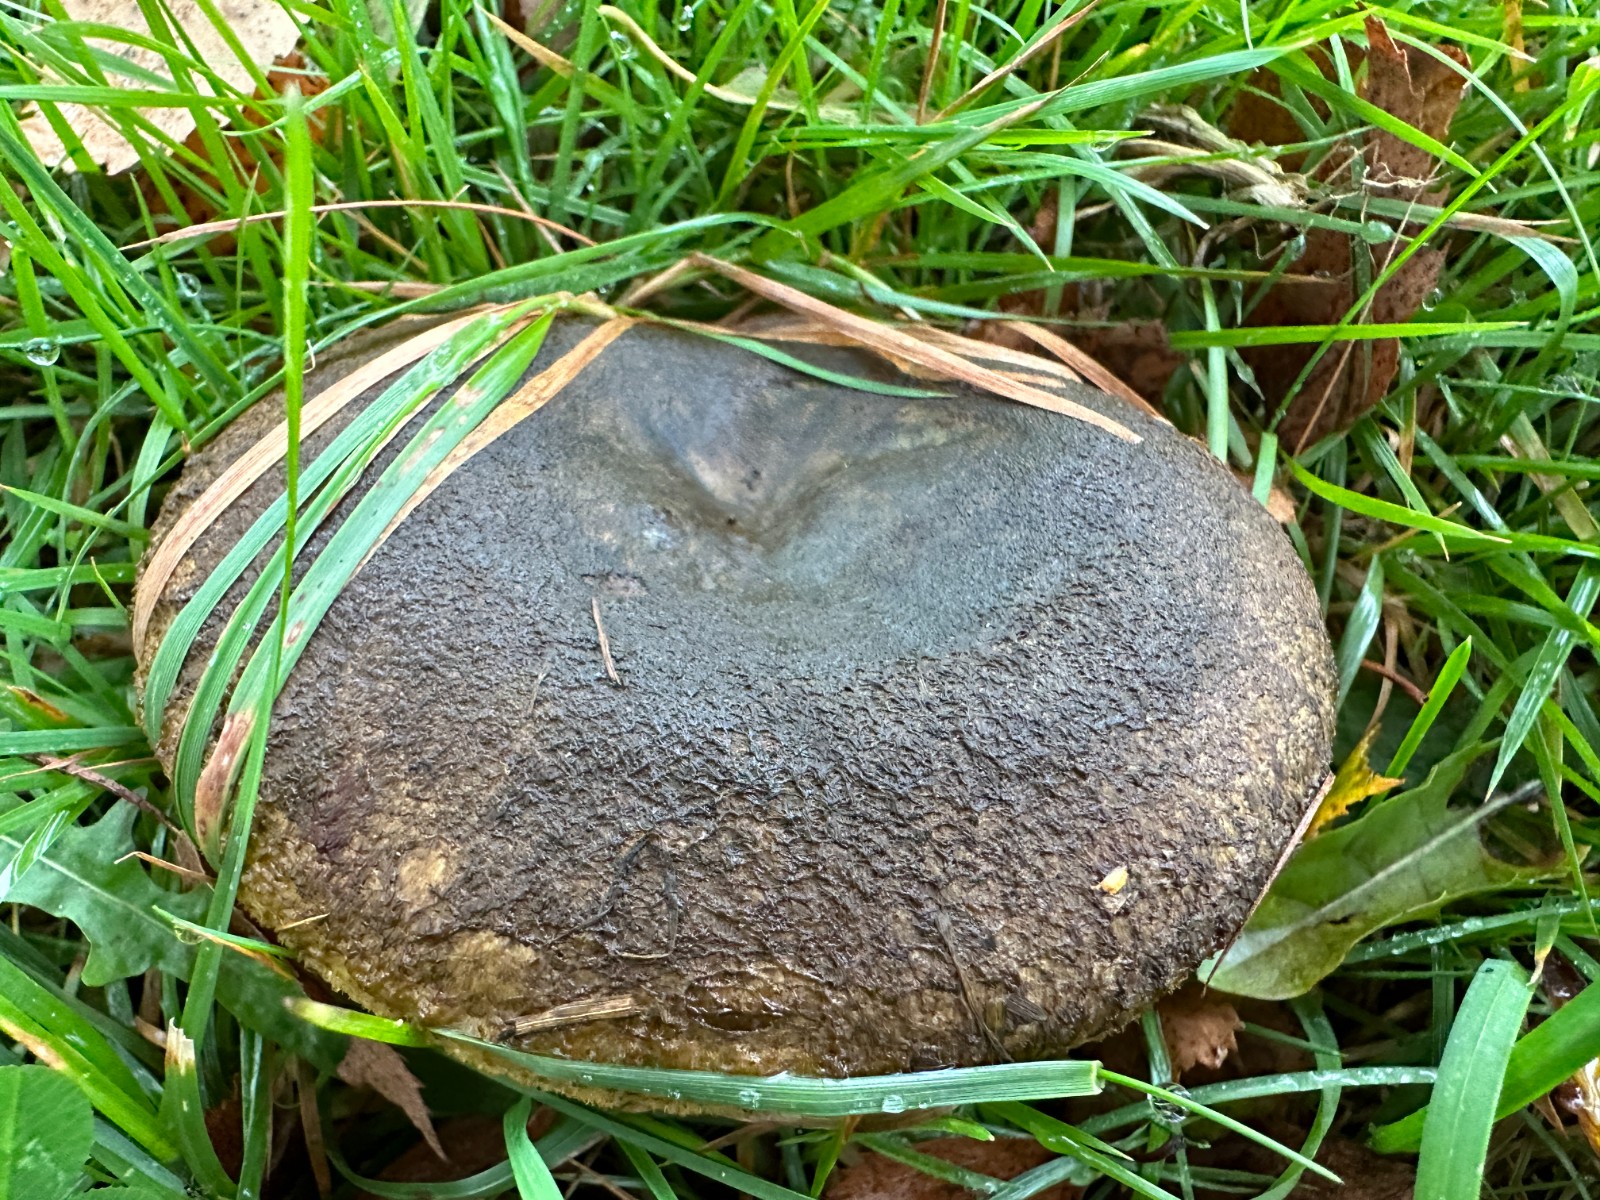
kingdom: Fungi
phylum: Basidiomycota
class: Agaricomycetes
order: Russulales
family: Russulaceae
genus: Lactarius
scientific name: Lactarius necator
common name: manddraber-mælkehat
